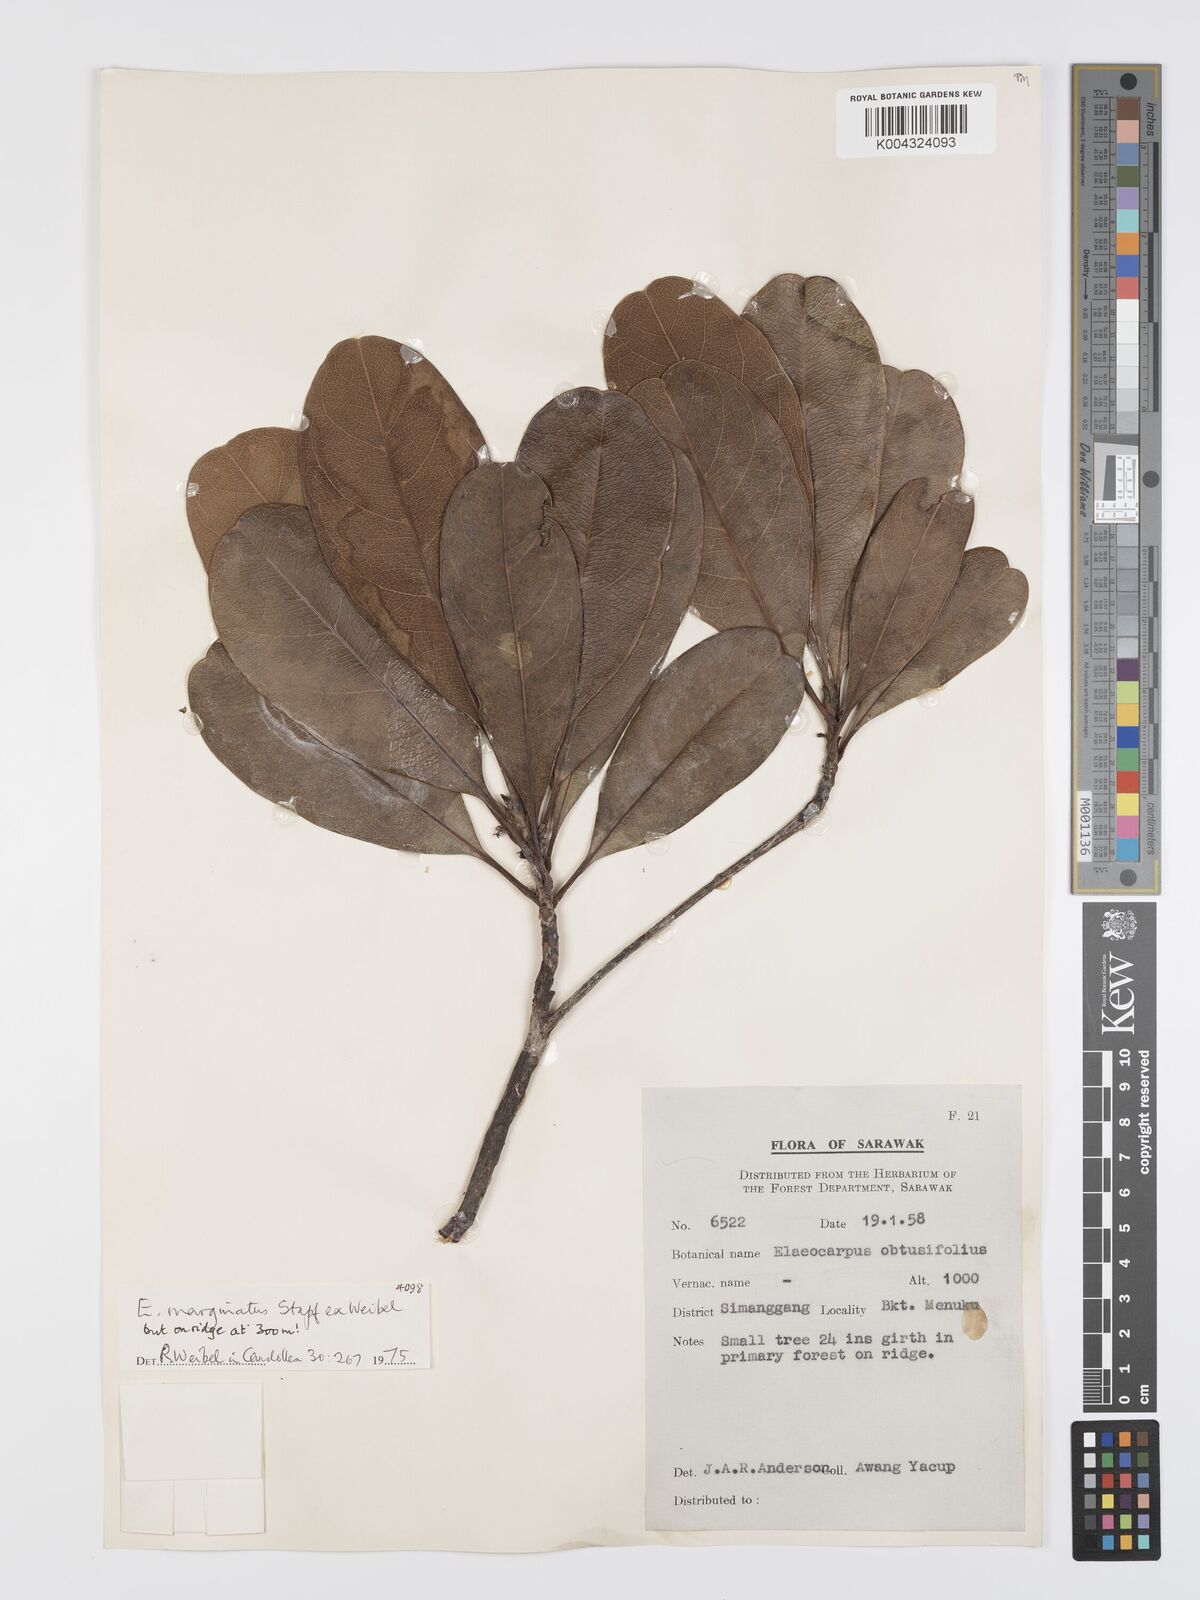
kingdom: Plantae
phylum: Tracheophyta
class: Magnoliopsida
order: Oxalidales
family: Elaeocarpaceae
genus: Elaeocarpus
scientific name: Elaeocarpus marginatus
